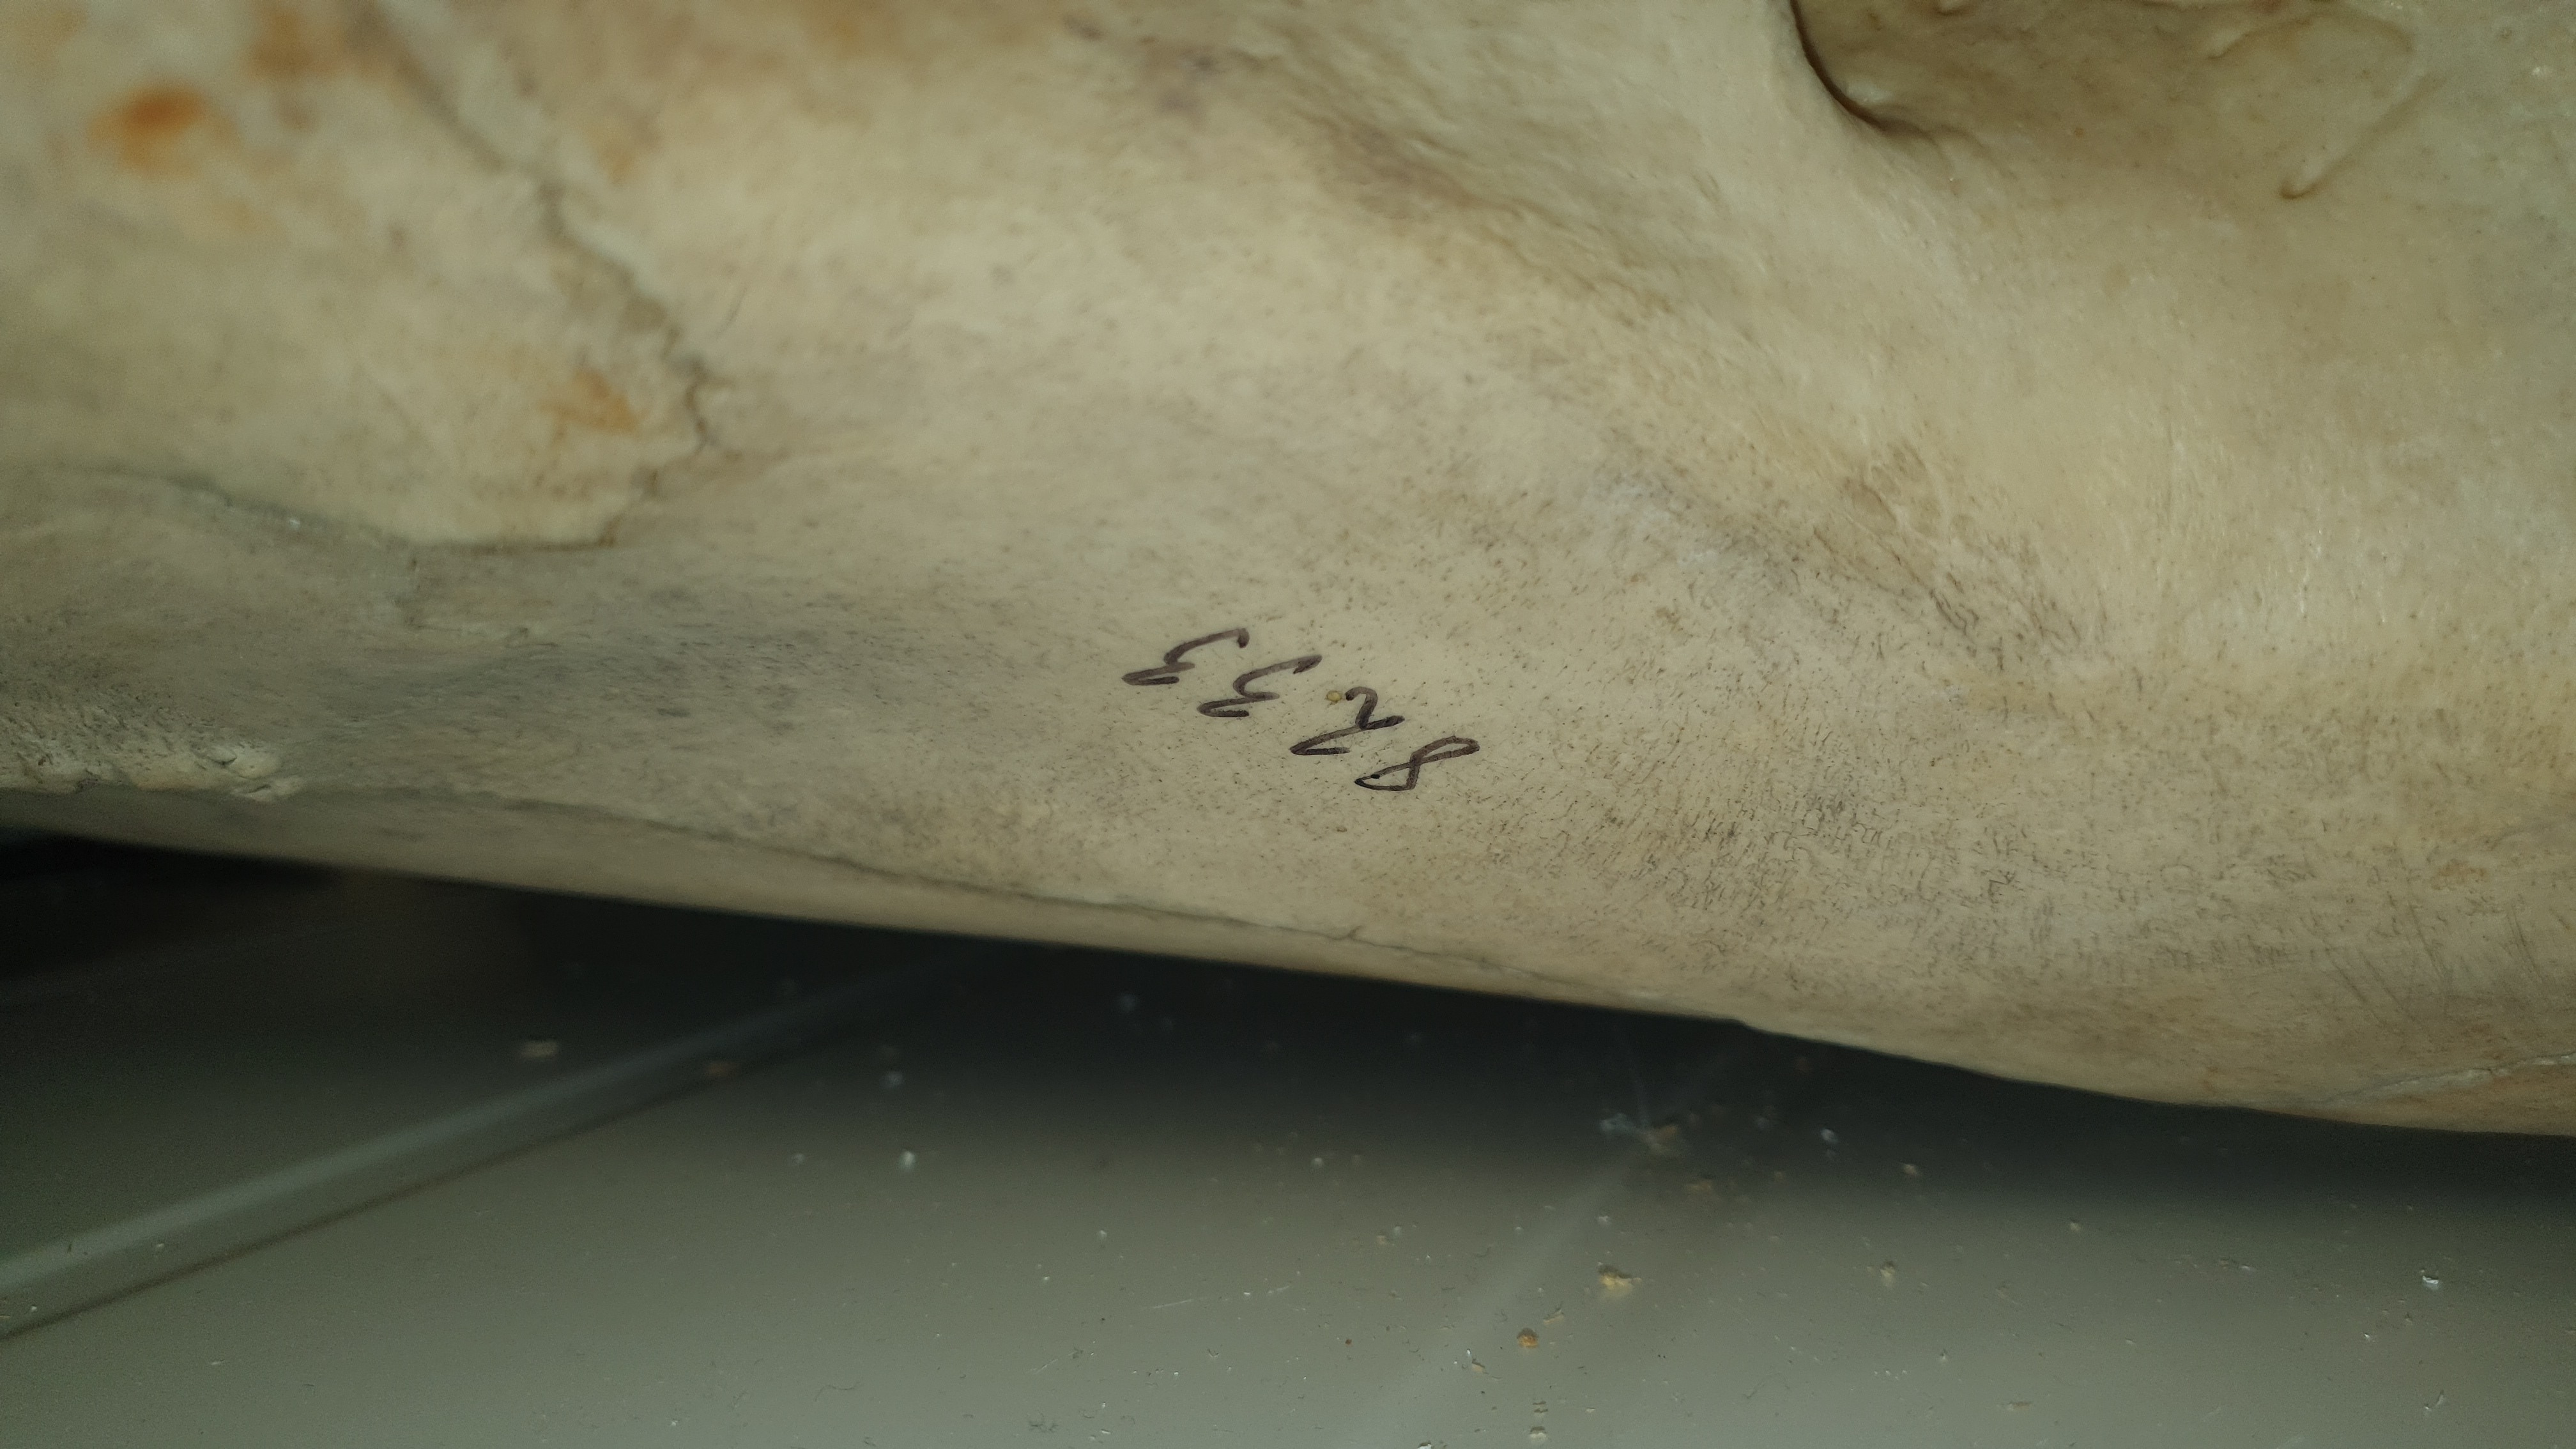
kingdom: Animalia
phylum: Chordata
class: Mammalia
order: Artiodactyla
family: Hippopotamidae
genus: Hippopotamus
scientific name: Hippopotamus amphibius
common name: Common hippopotamus
